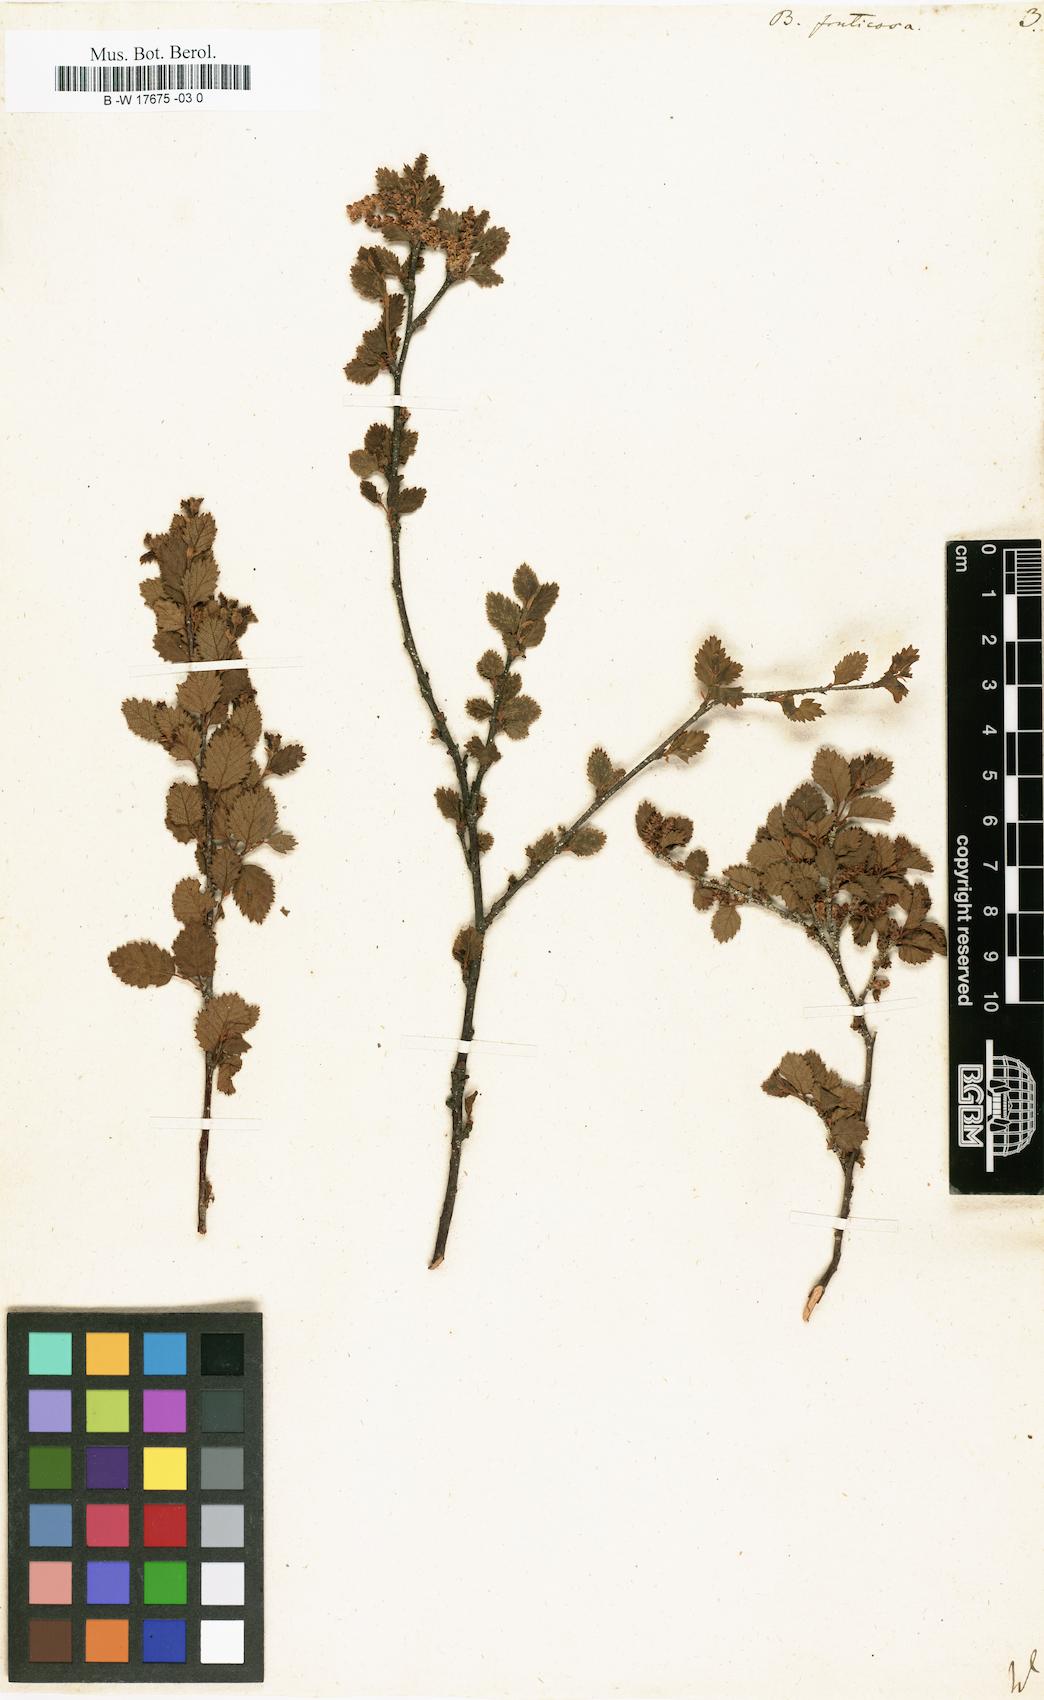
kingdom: Plantae
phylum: Tracheophyta
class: Magnoliopsida
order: Fagales
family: Betulaceae
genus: Betula
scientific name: Betula fruticosa
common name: Japanese bog birch
